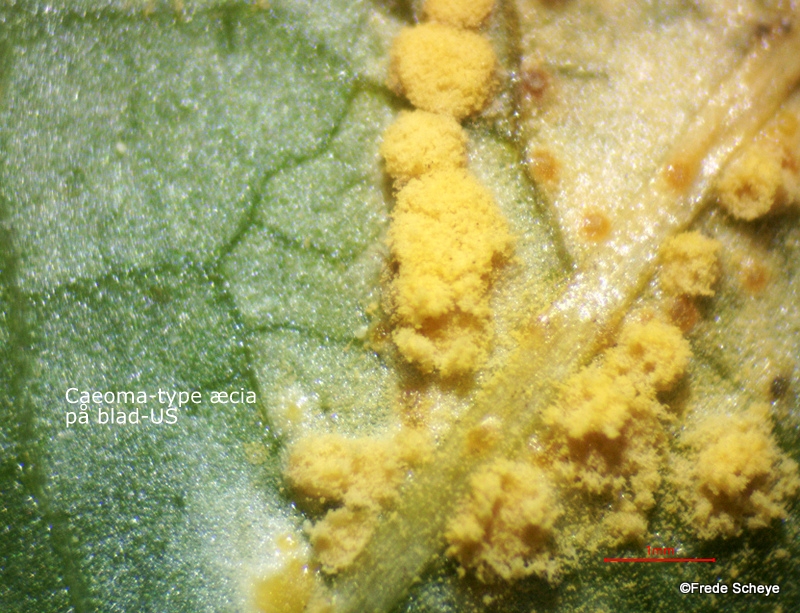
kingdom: Fungi
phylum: Basidiomycota
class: Pucciniomycetes
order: Pucciniales
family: Melampsoraceae
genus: Melampsora
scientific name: Melampsora populnea
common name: poppel-skorperust
